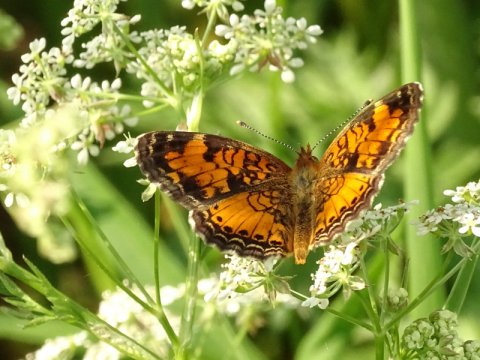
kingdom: Animalia
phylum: Arthropoda
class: Insecta
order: Lepidoptera
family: Nymphalidae
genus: Phyciodes
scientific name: Phyciodes tharos
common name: Northern Crescent
